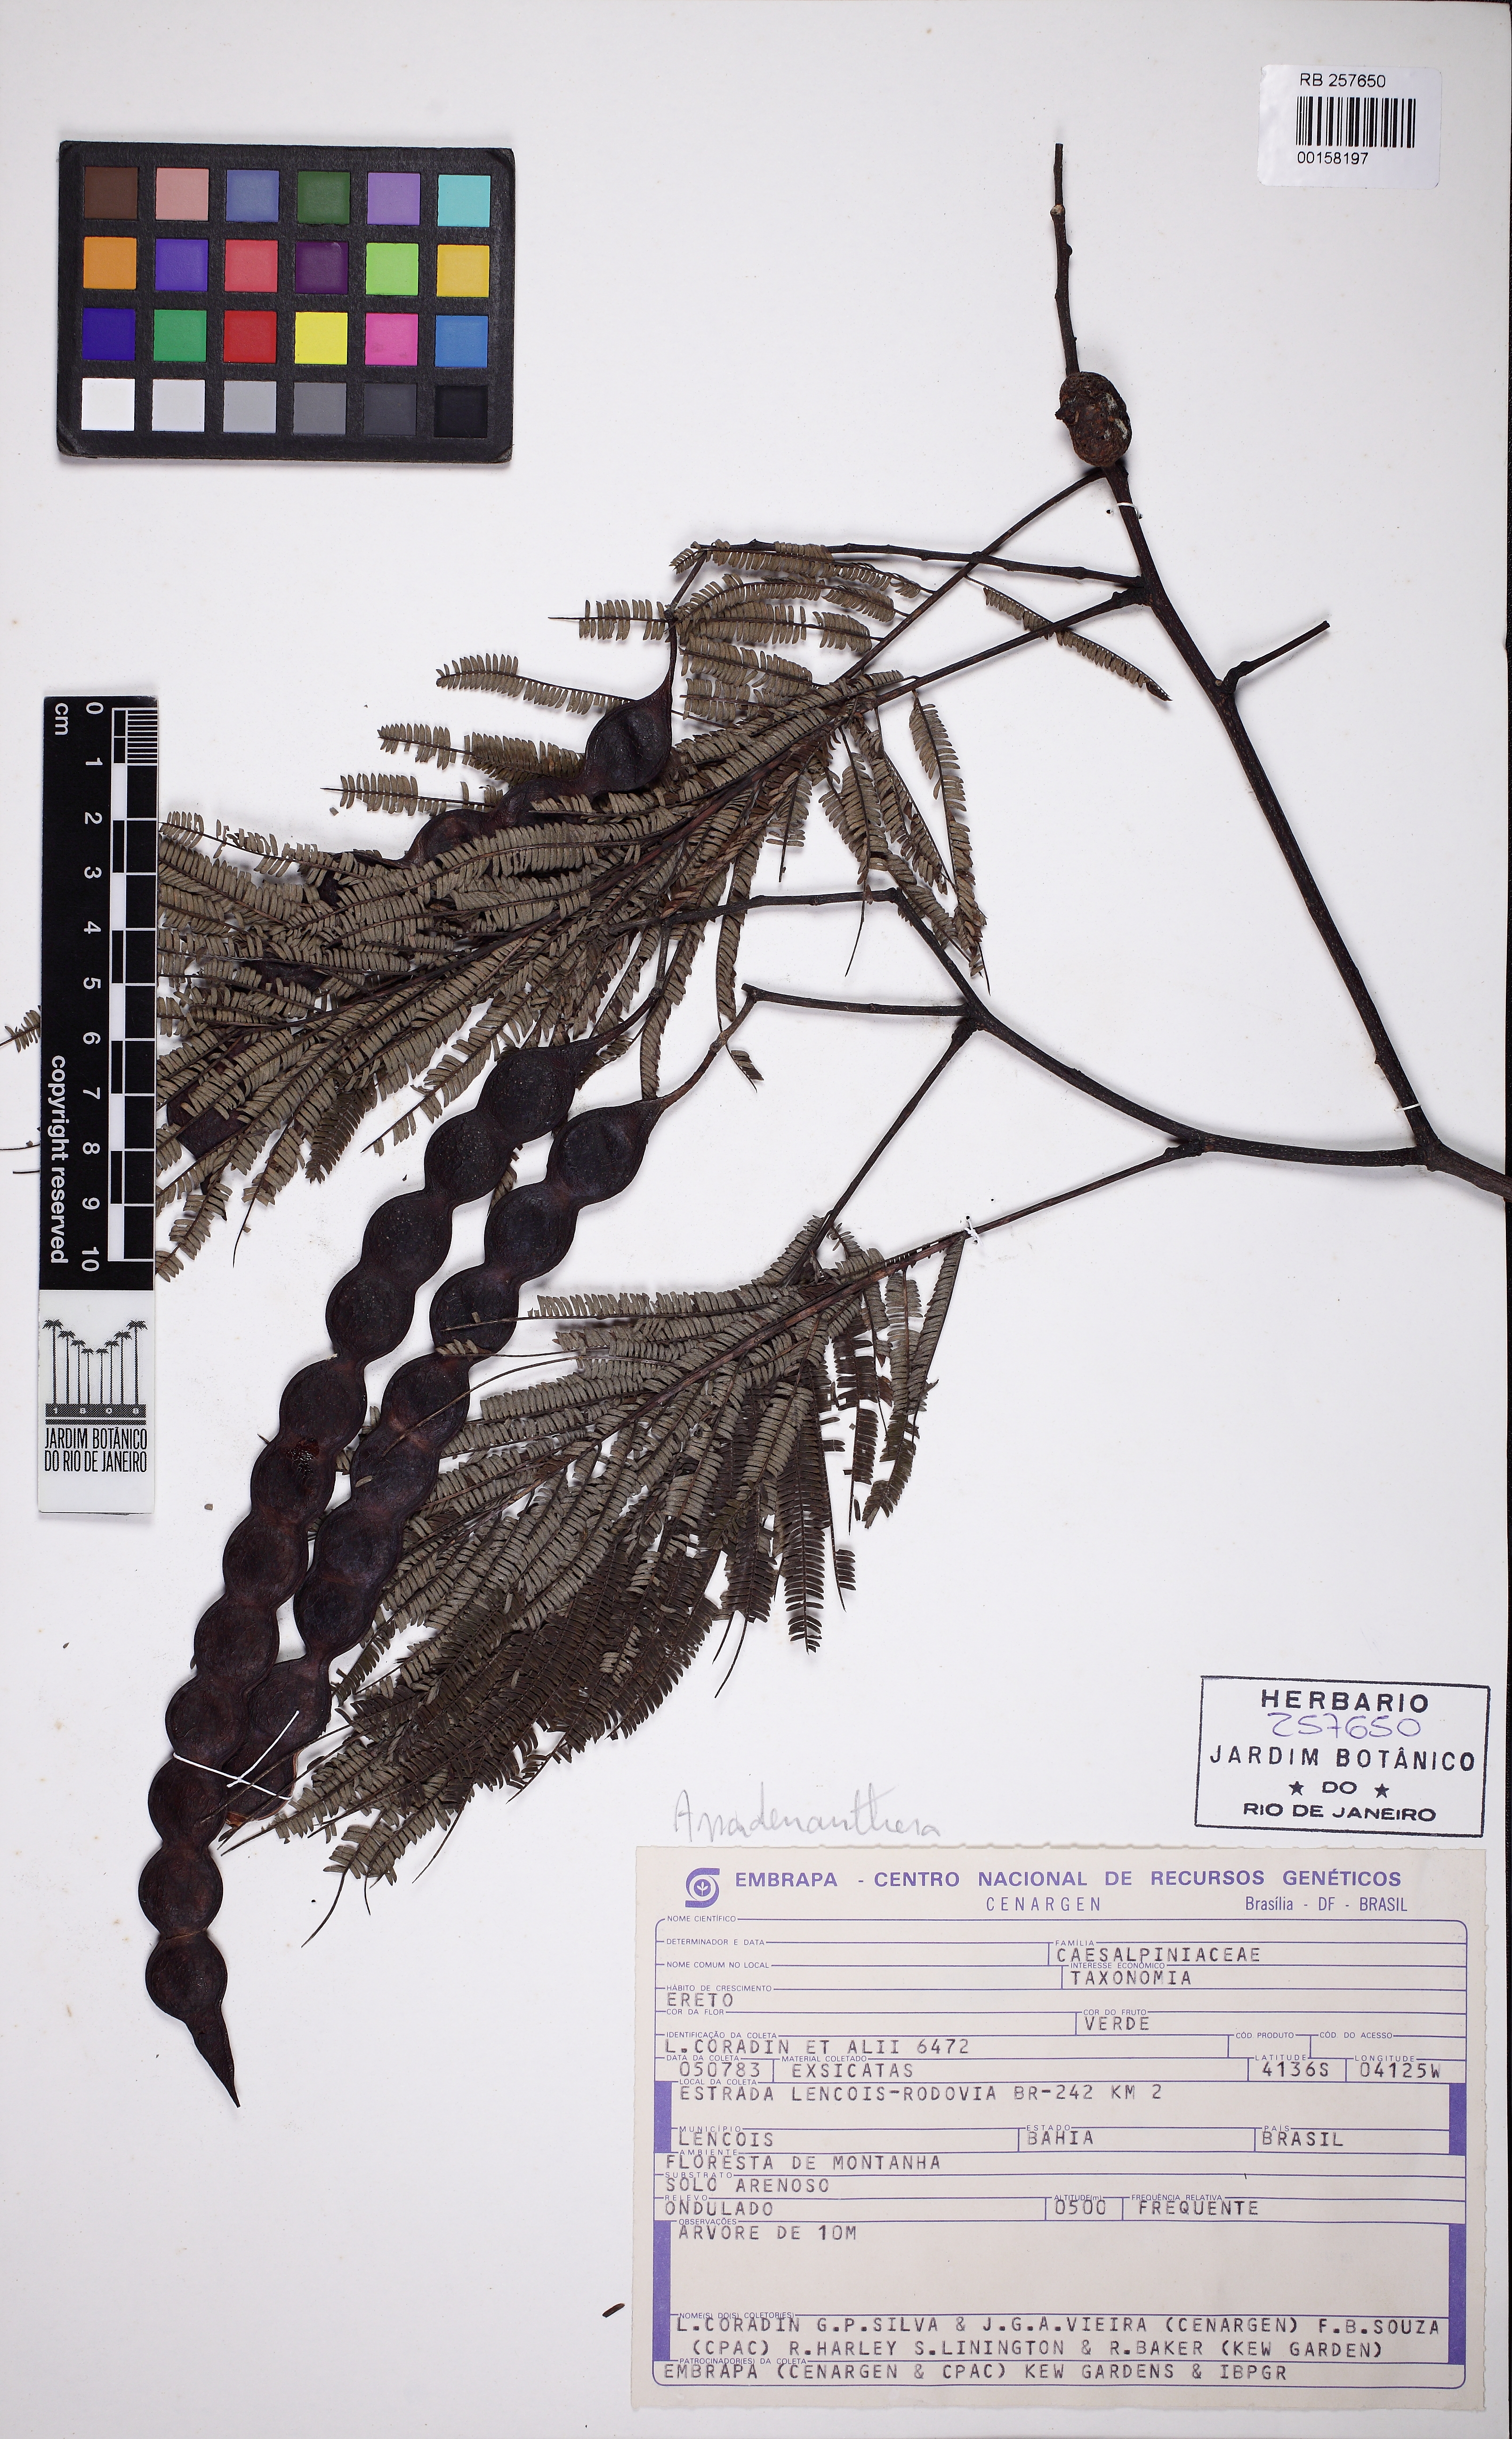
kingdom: Plantae
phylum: Tracheophyta
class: Magnoliopsida
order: Fabales
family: Fabaceae
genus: Anadenanthera
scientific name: Anadenanthera colubrina
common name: Curupay
